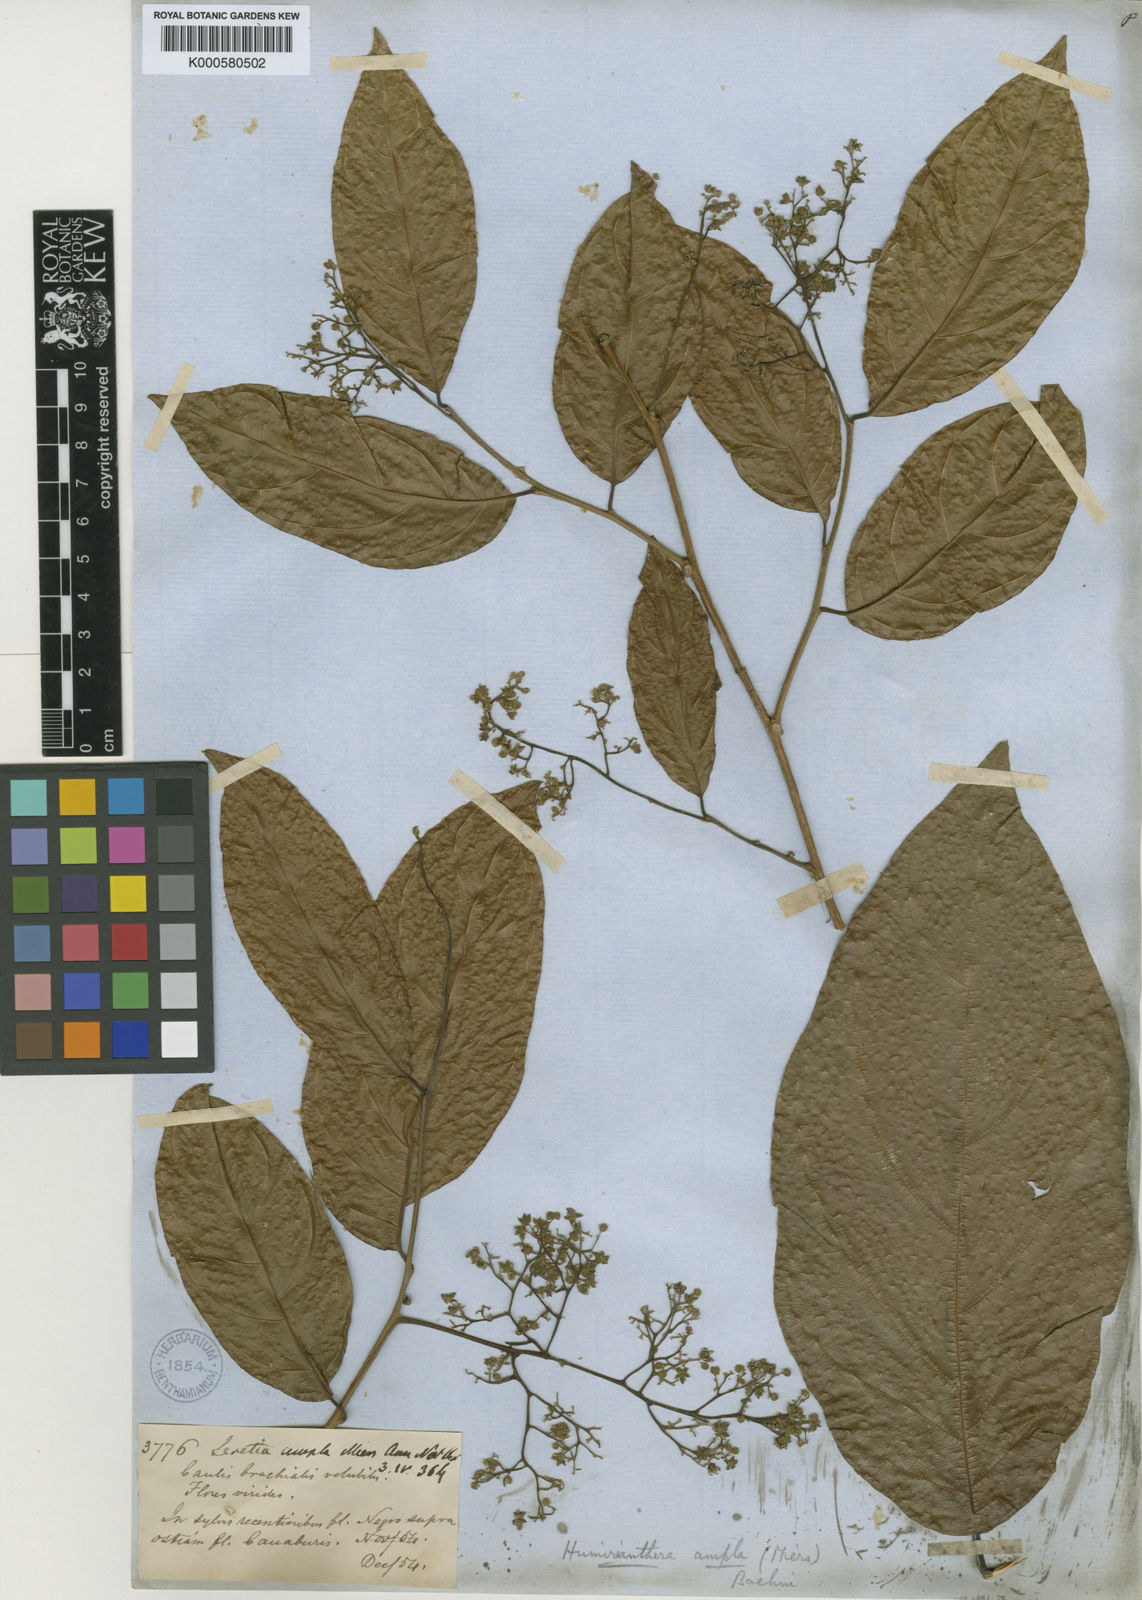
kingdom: Plantae
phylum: Tracheophyta
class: Magnoliopsida
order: Icacinales
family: Icacinaceae
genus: Casimirella
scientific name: Casimirella ampla
